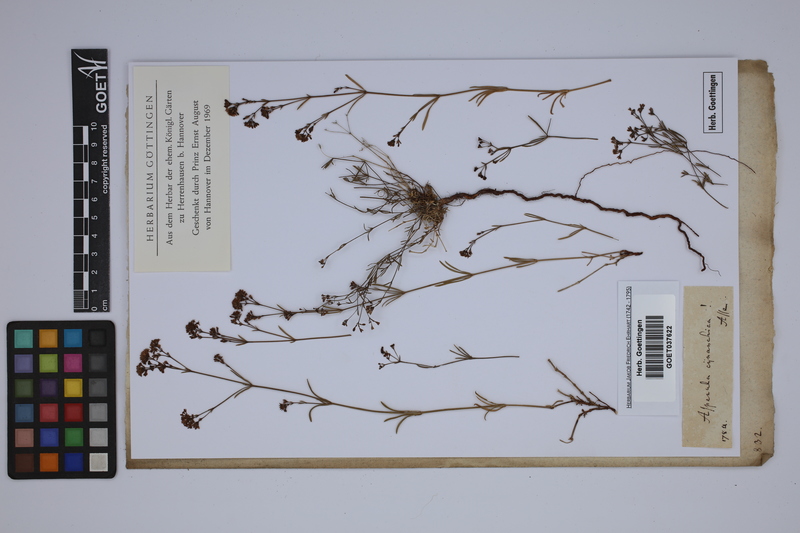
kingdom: Plantae
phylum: Tracheophyta
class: Magnoliopsida
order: Gentianales
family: Rubiaceae
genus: Cynanchica
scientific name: Cynanchica pyrenaica
